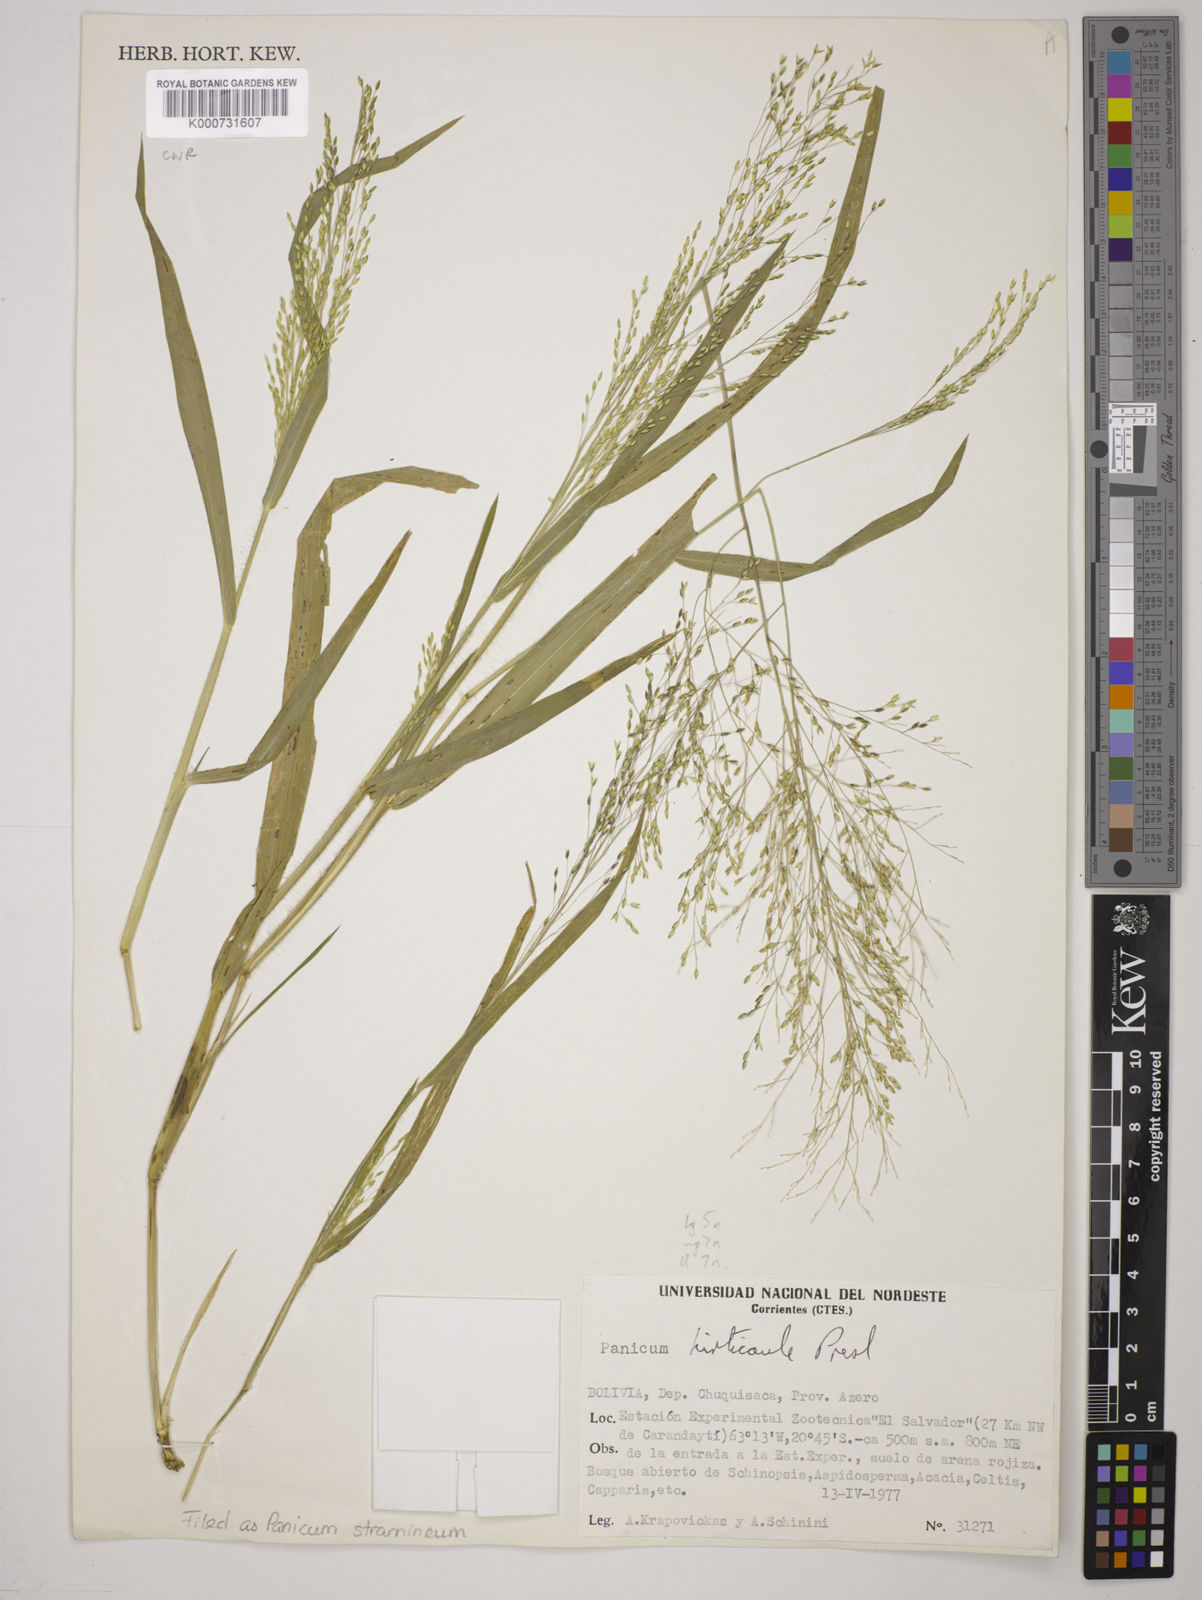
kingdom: Plantae
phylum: Tracheophyta
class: Liliopsida
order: Poales
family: Poaceae
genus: Panicum
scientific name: Panicum hirticaule
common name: Rough-stalk witchgrass
